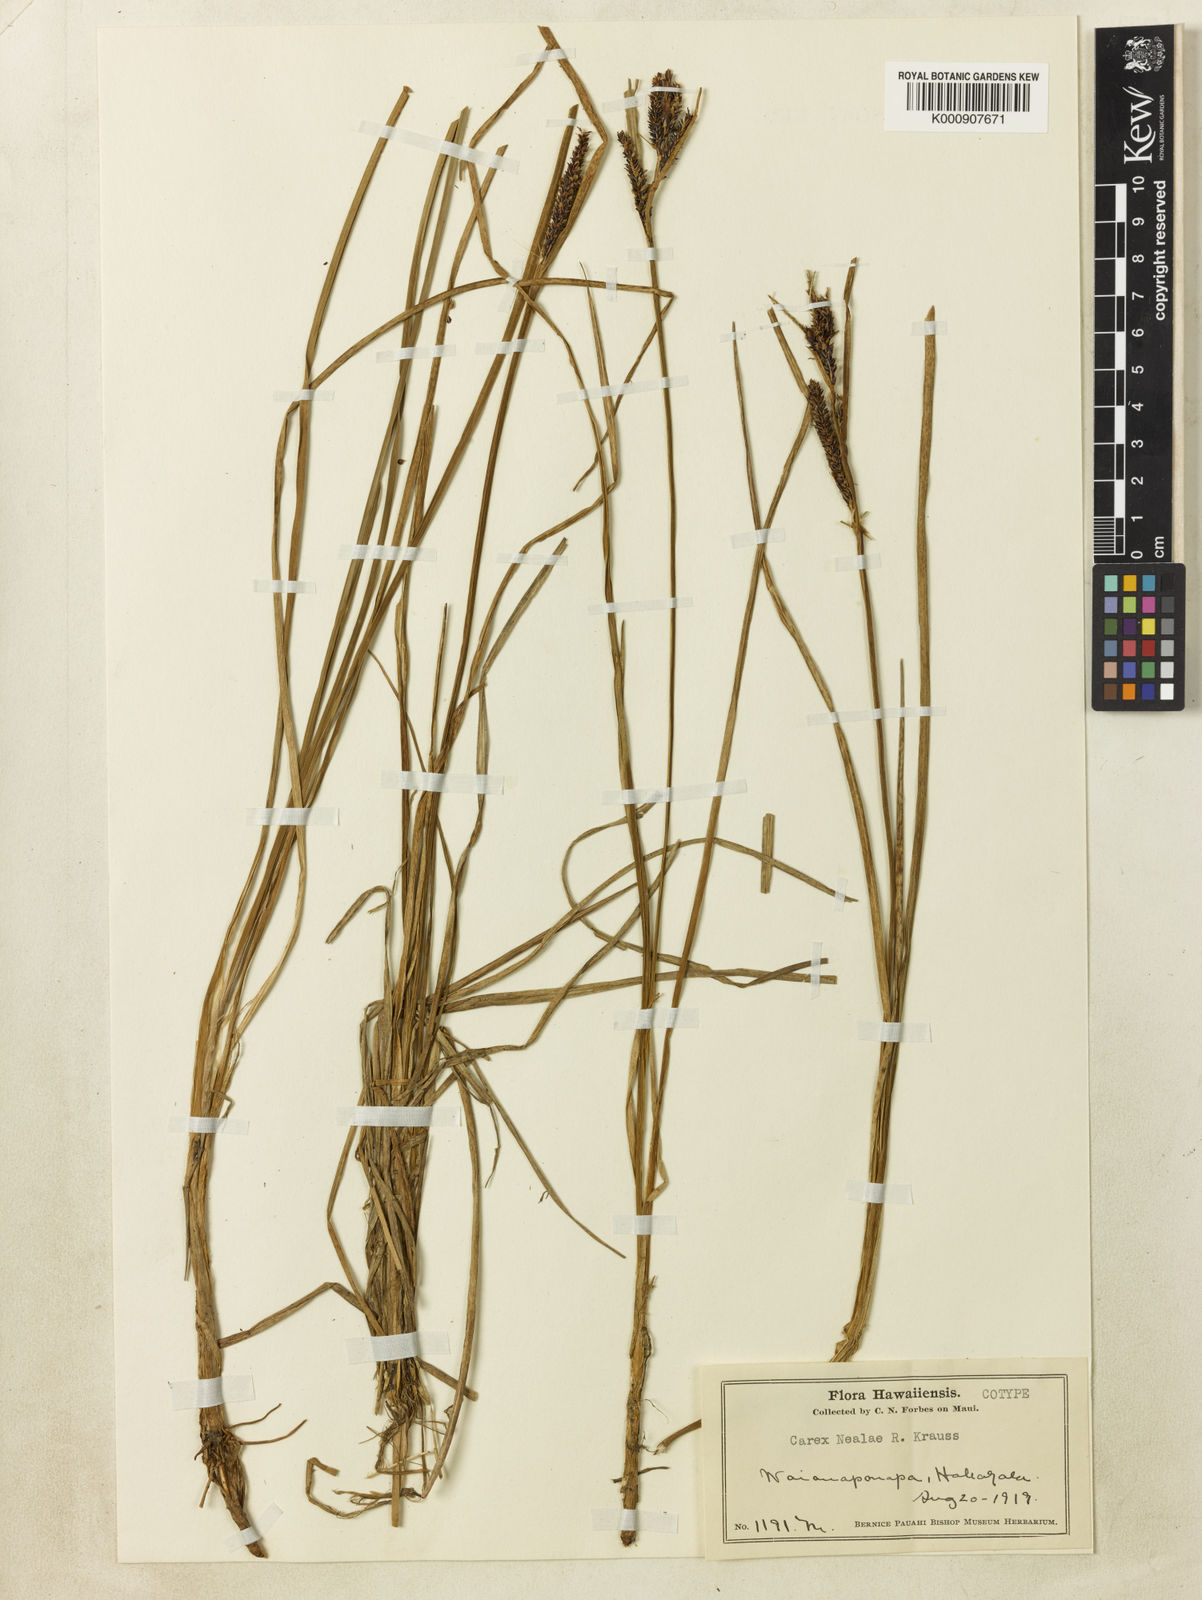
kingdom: Plantae
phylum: Tracheophyta
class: Liliopsida
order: Poales
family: Cyperaceae
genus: Carex
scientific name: Carex nealiae
